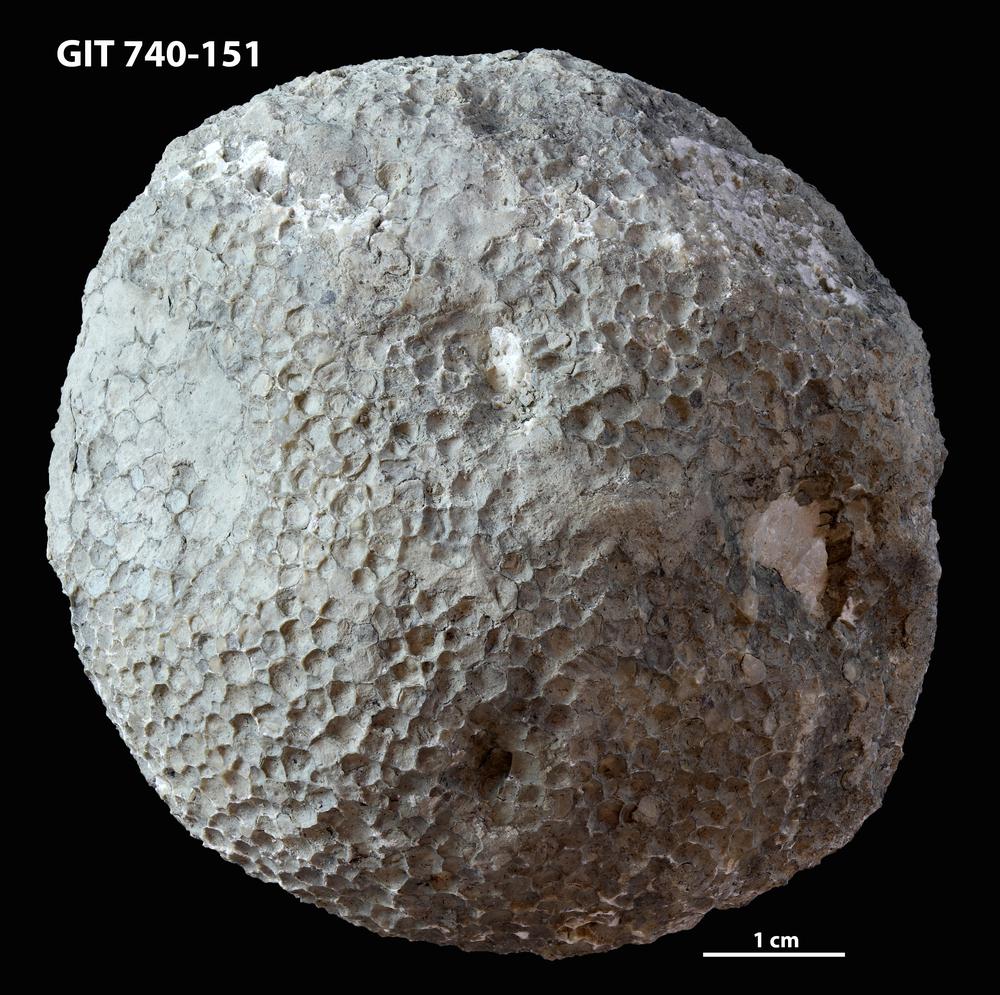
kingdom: Animalia
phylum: Cnidaria
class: Anthozoa
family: Favositidae
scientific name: Favositidae
